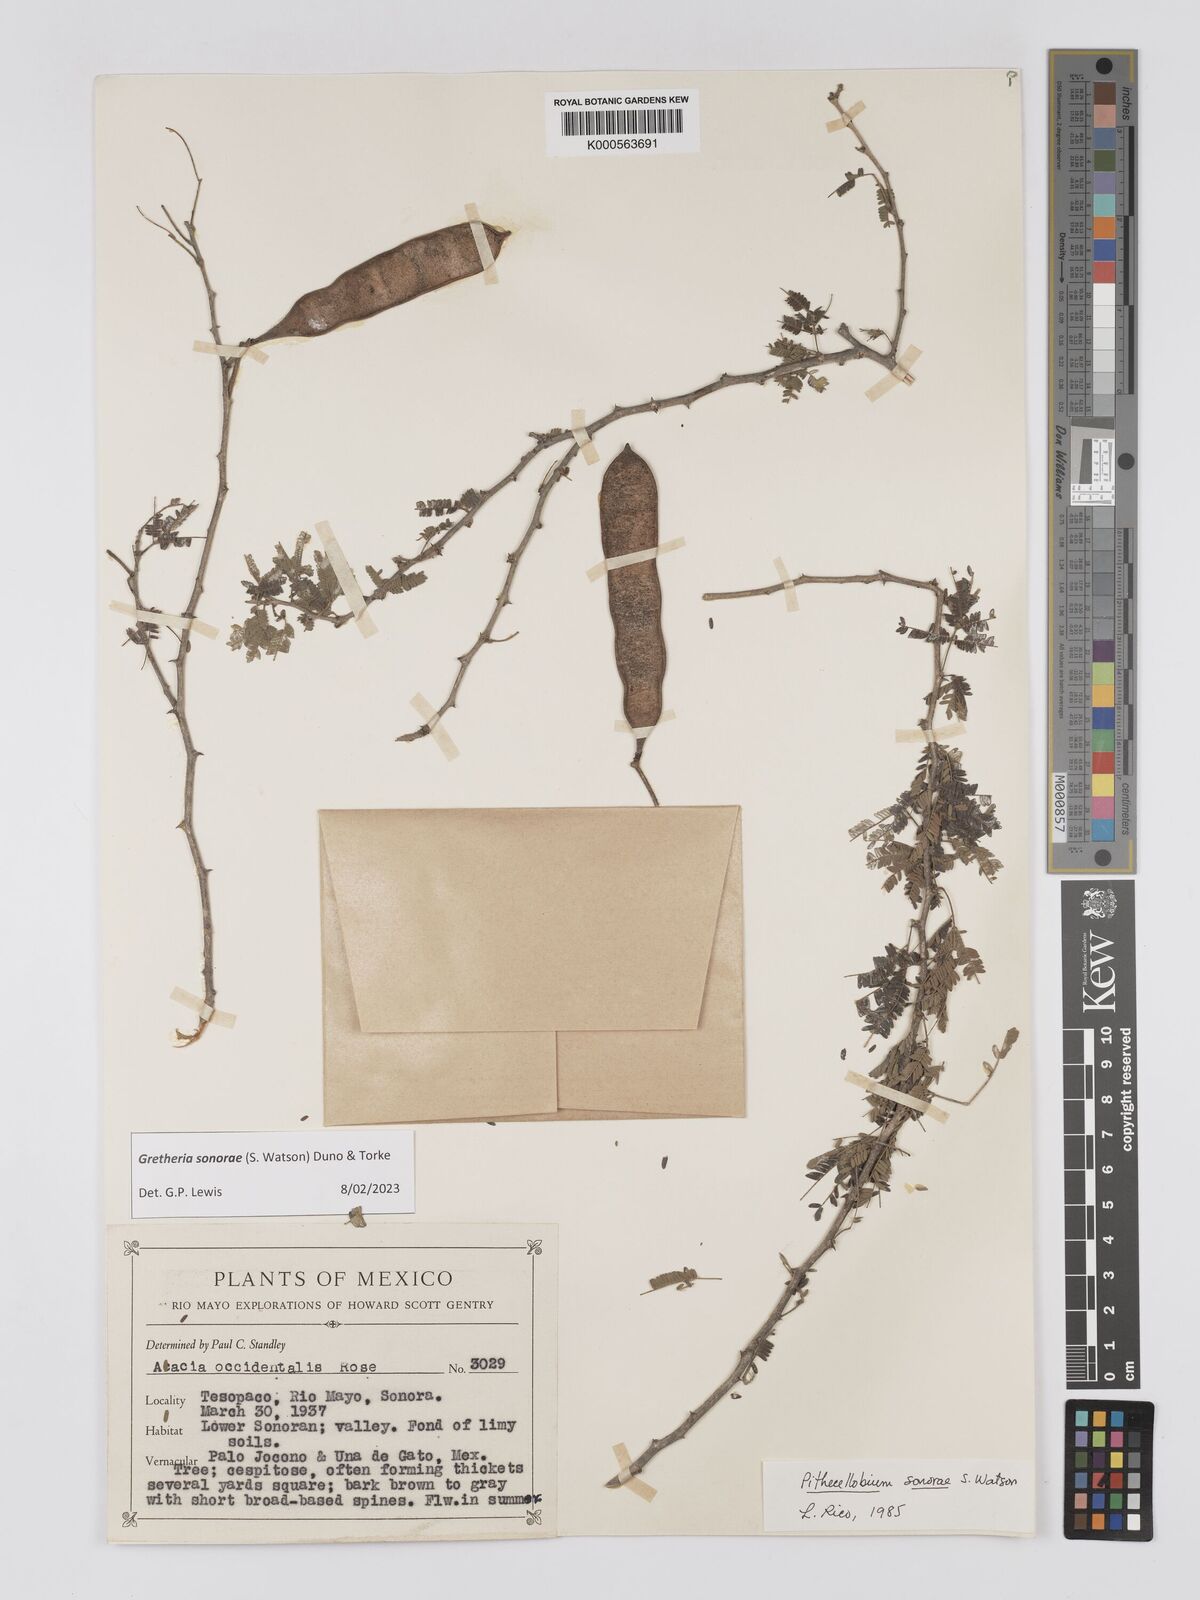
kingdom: Plantae
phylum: Tracheophyta
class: Magnoliopsida
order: Fabales
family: Fabaceae
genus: Havardia
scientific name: Havardia sonorae
